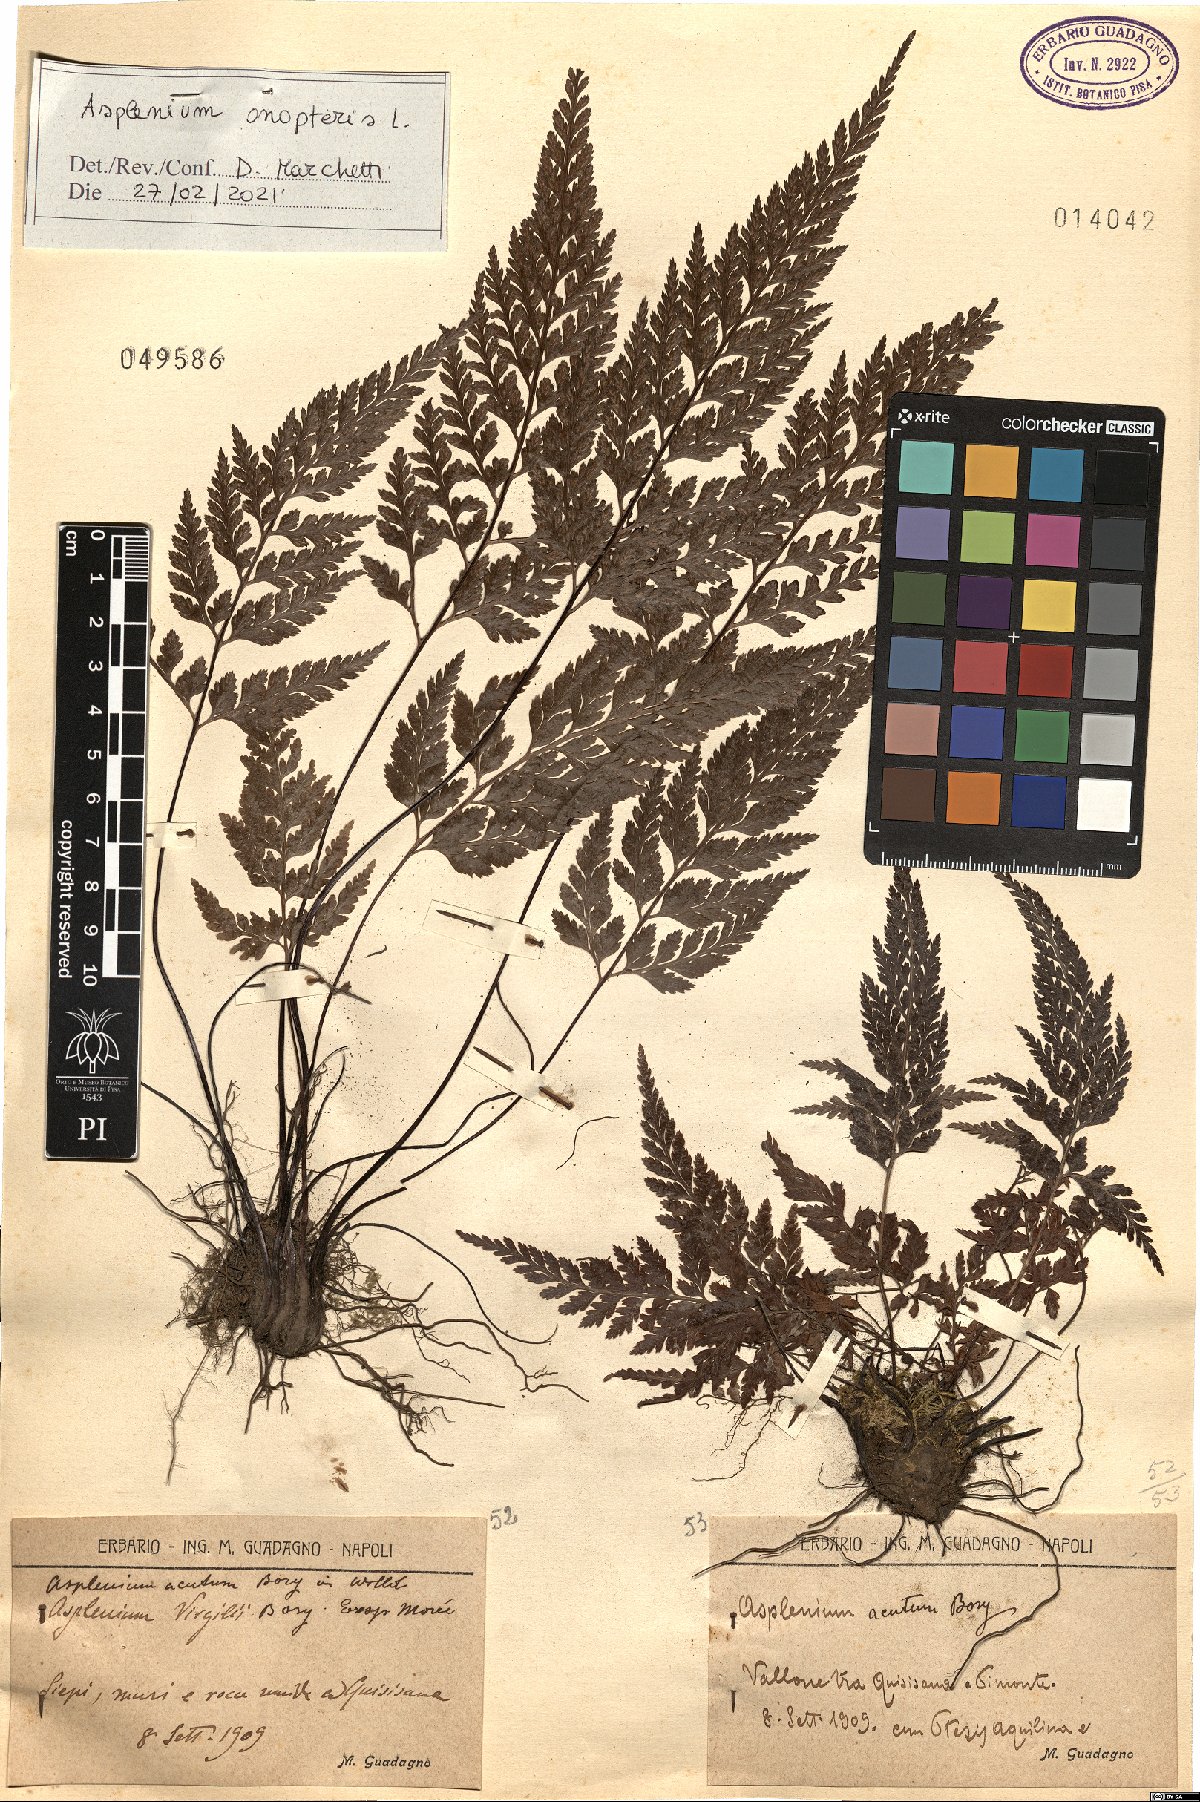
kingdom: Plantae
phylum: Tracheophyta
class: Polypodiopsida
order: Polypodiales
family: Aspleniaceae
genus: Asplenium
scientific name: Asplenium onopteris
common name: Irish spleenwort
